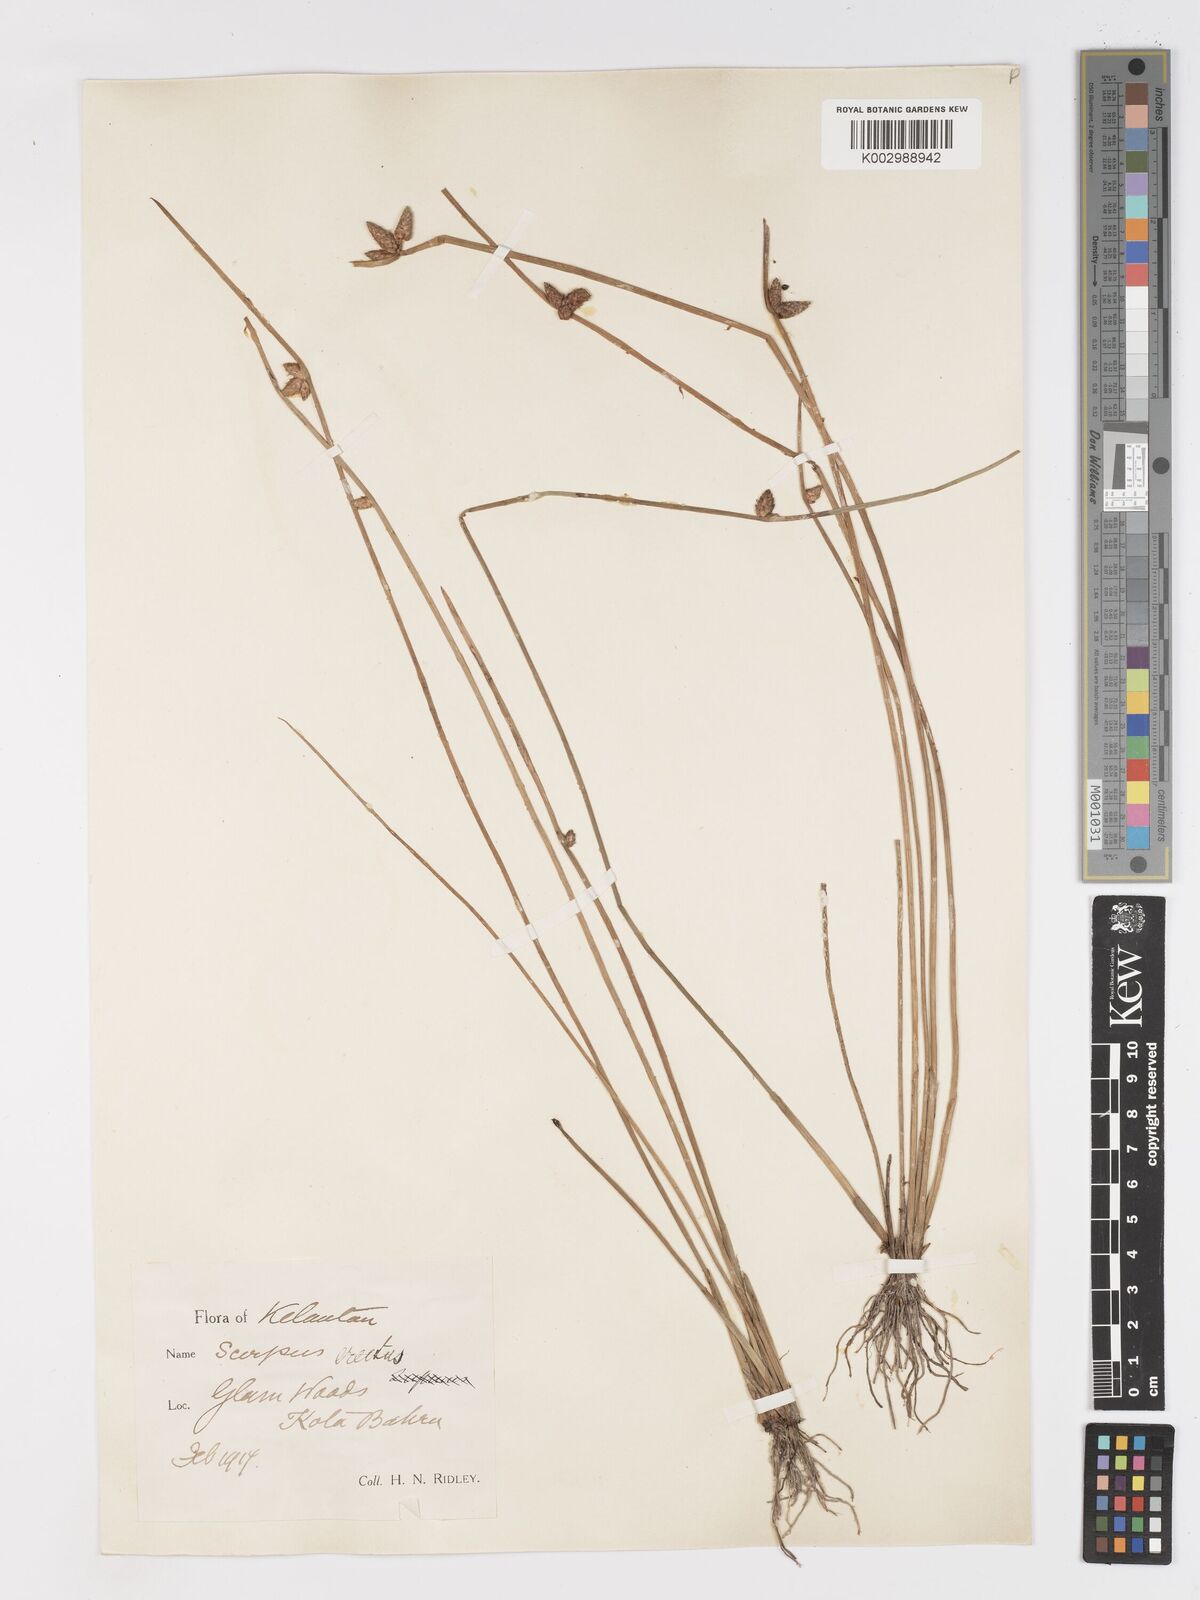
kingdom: Plantae
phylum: Tracheophyta
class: Liliopsida
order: Poales
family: Cyperaceae
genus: Schoenoplectiella
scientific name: Schoenoplectiella juncoides
